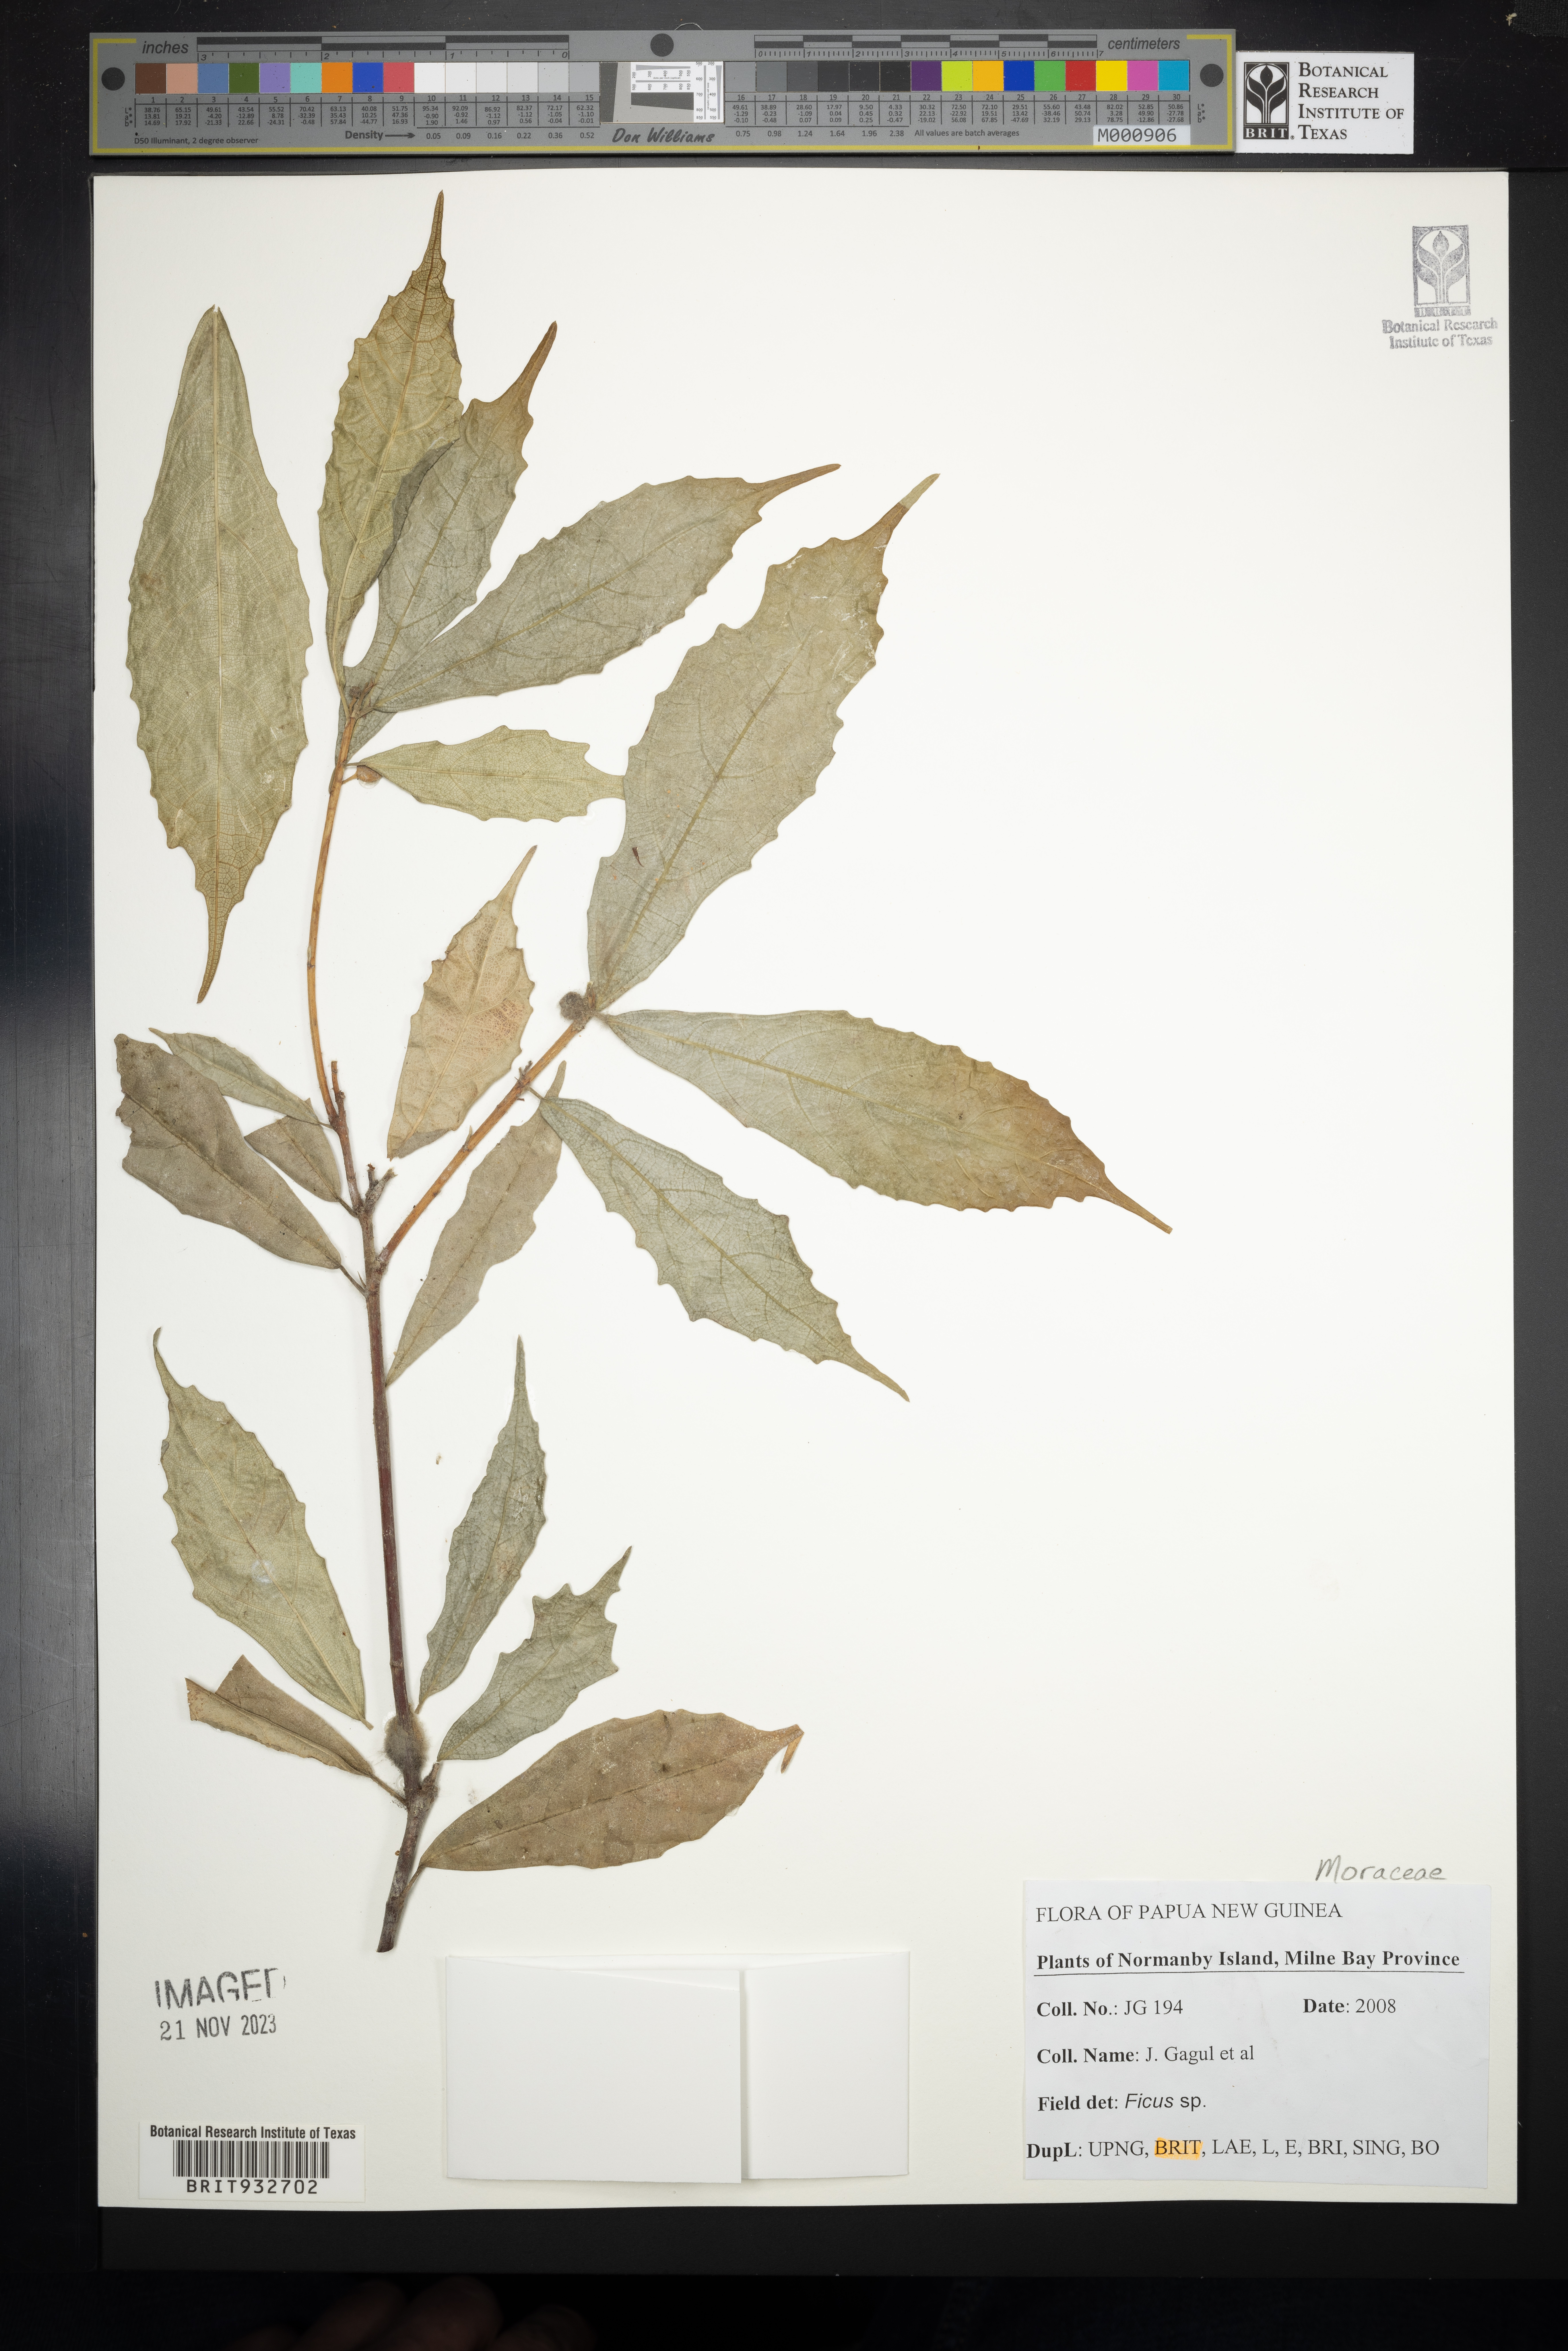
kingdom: Plantae
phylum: Tracheophyta
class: Magnoliopsida
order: Rosales
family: Moraceae
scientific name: Moraceae
